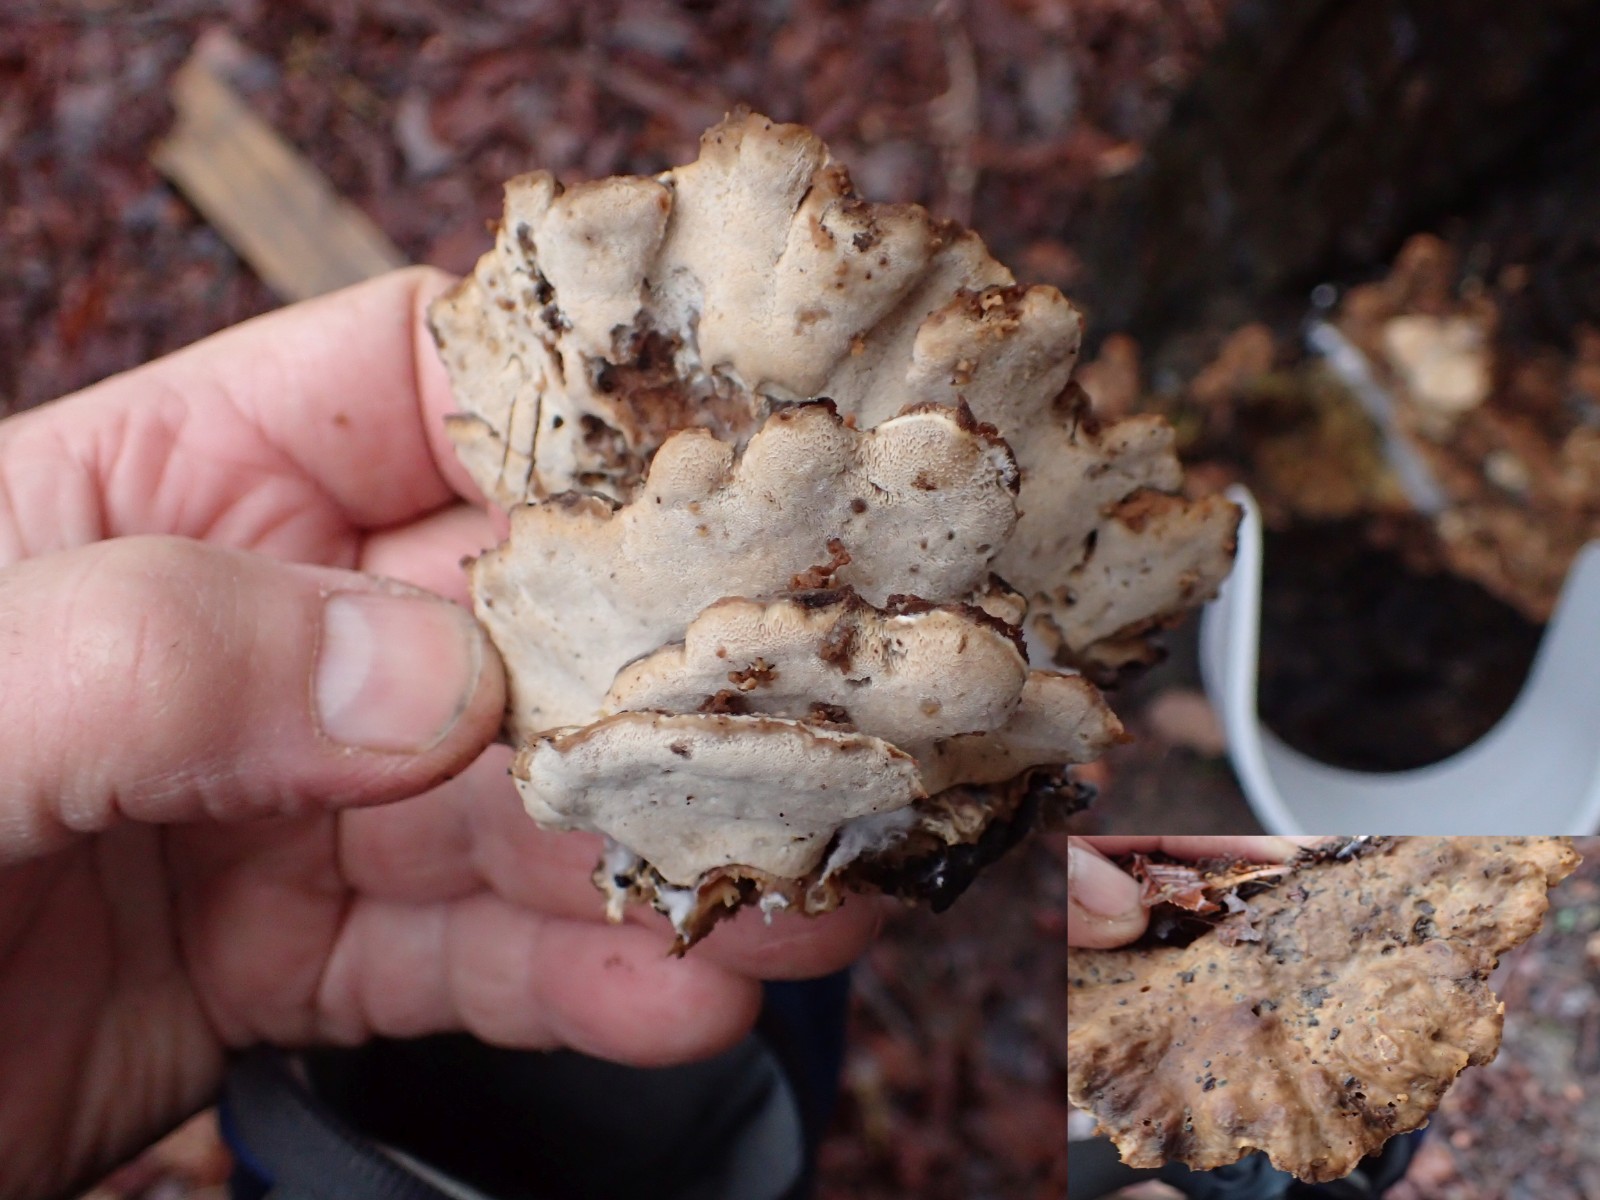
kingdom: Fungi
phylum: Basidiomycota
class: Agaricomycetes
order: Polyporales
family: Phanerochaetaceae
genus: Bjerkandera
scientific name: Bjerkandera fumosa
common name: grågul sodporesvamp
